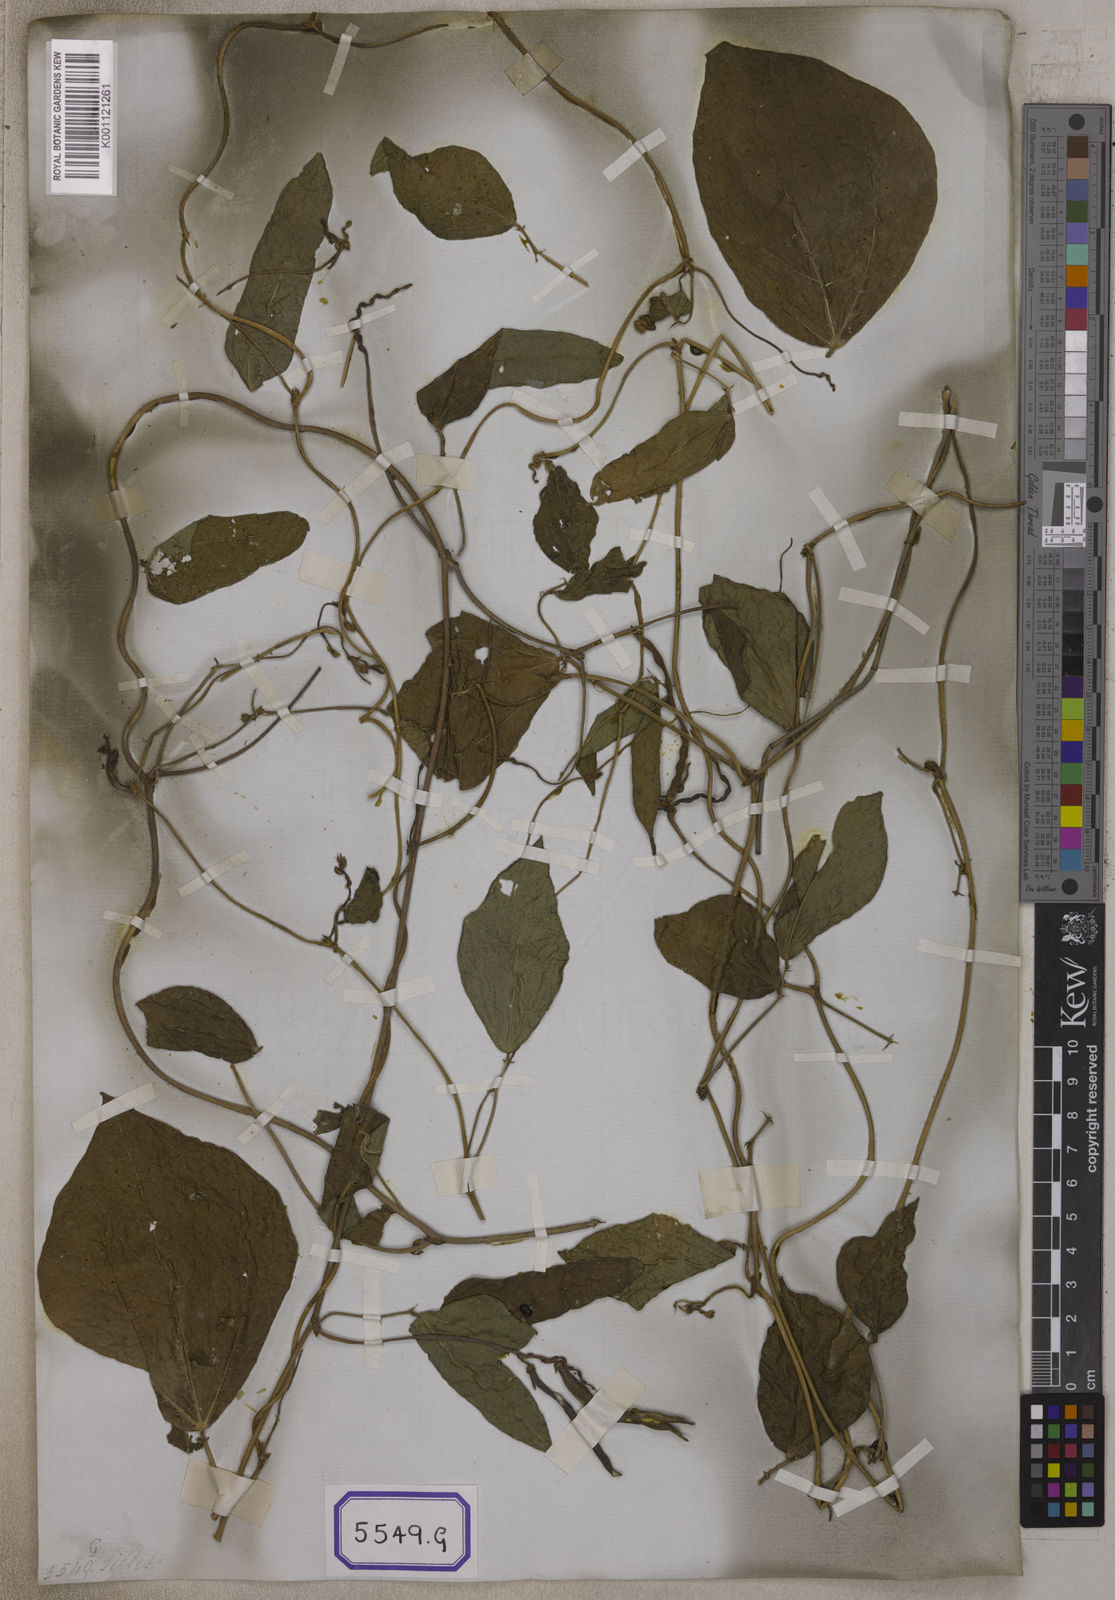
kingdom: Plantae
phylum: Tracheophyta
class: Magnoliopsida
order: Fabales
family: Fabaceae
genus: Vigna
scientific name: Vigna unguiculata
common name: Cowpea
